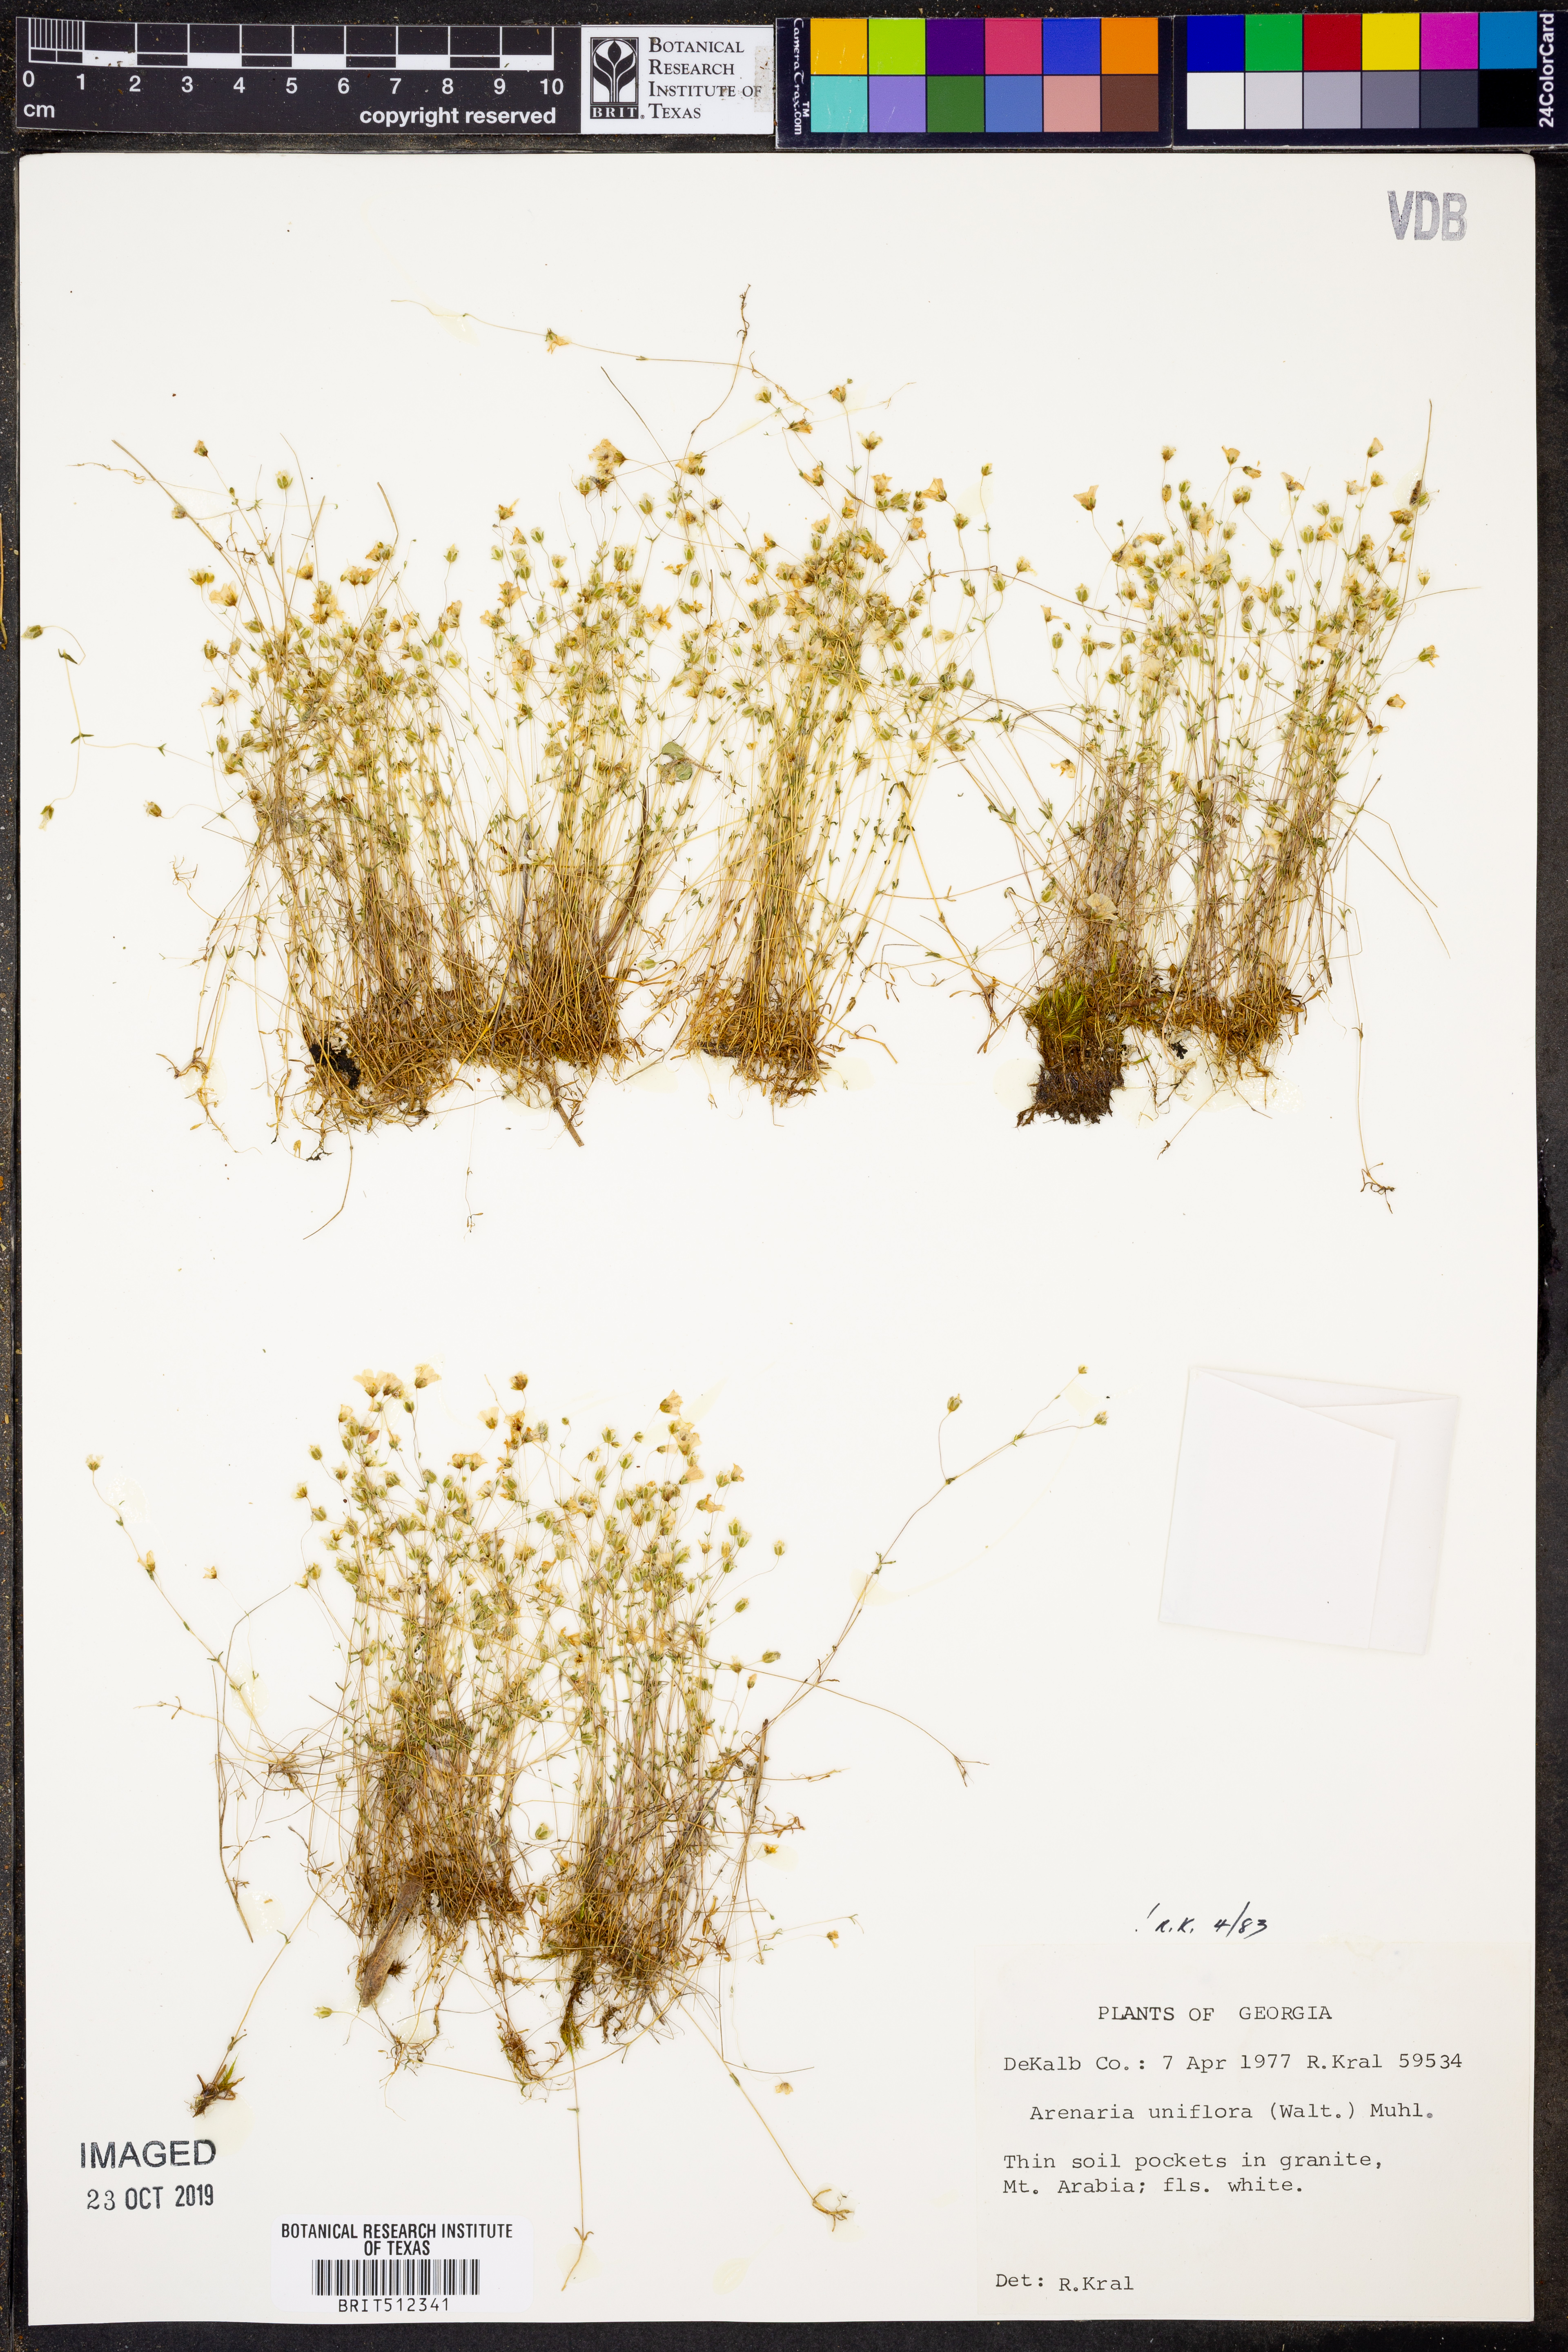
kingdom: Plantae
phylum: Tracheophyta
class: Magnoliopsida
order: Caryophyllales
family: Caryophyllaceae
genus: Geocarpon
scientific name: Geocarpon uniflorum
